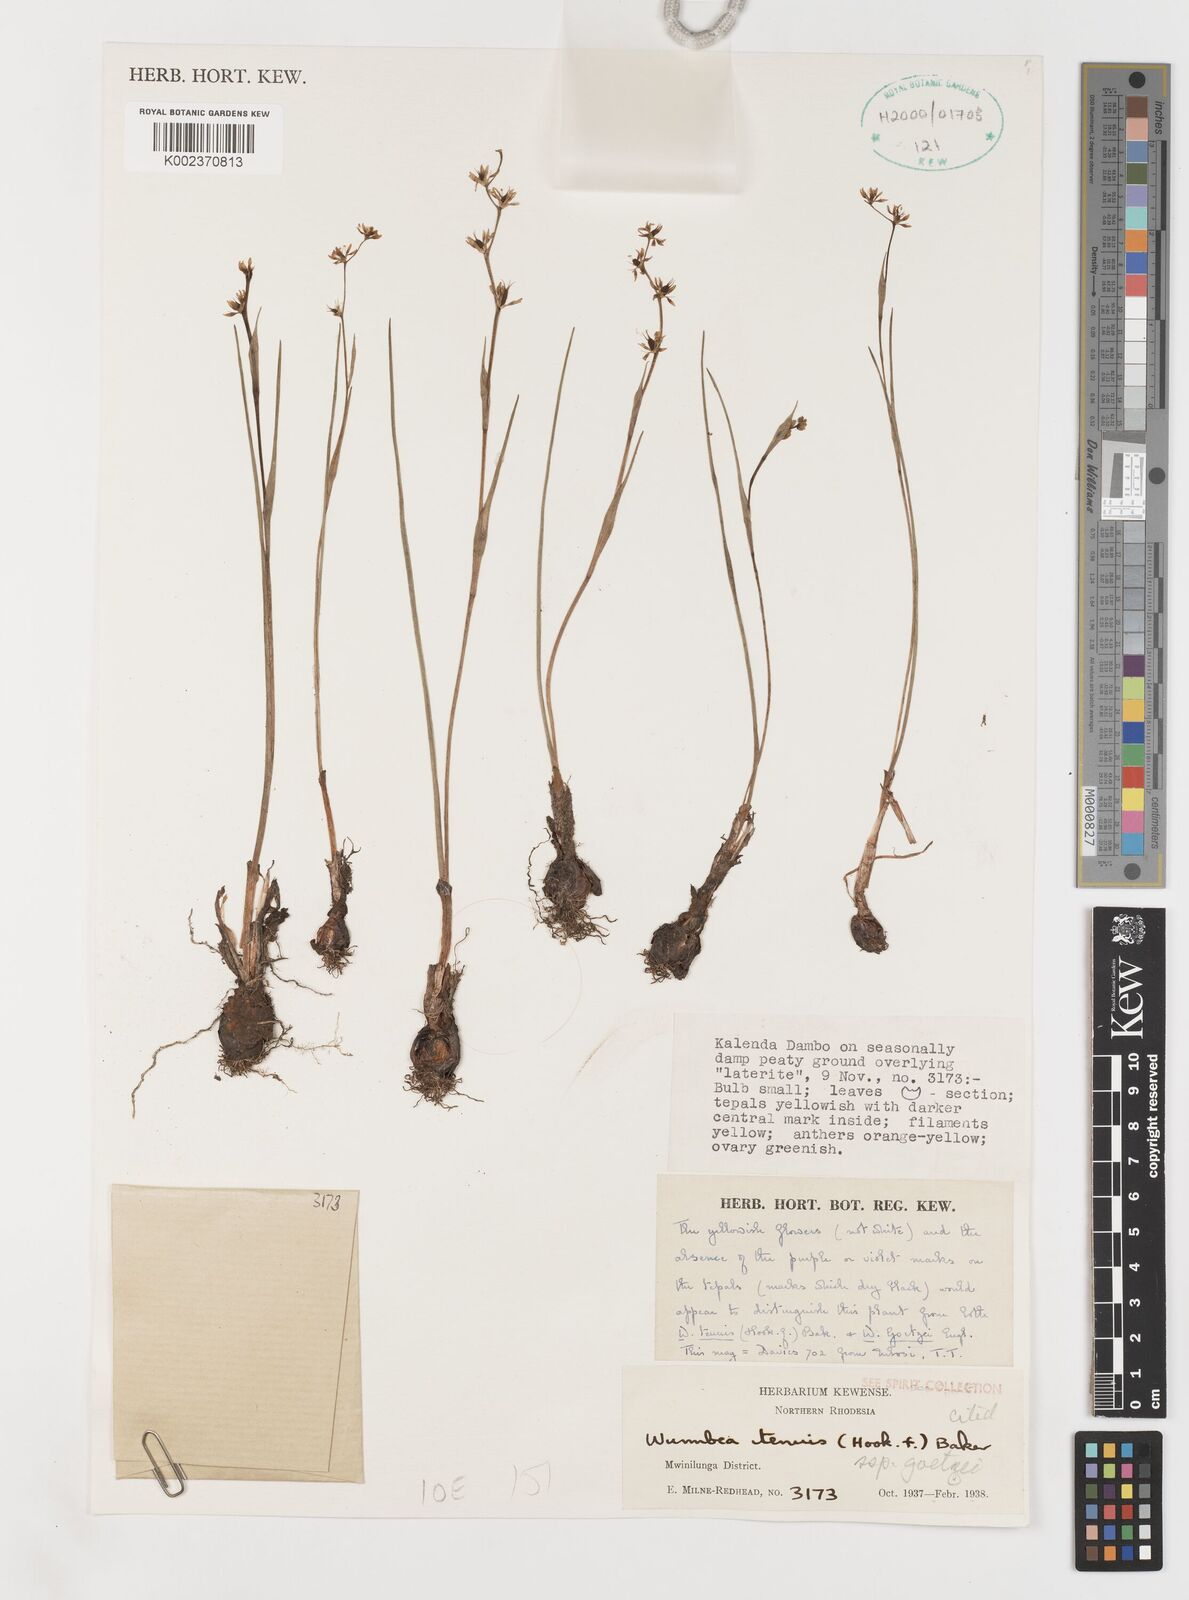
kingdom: Plantae
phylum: Tracheophyta
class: Liliopsida
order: Liliales
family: Colchicaceae
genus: Wurmbea
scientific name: Wurmbea tenuis
